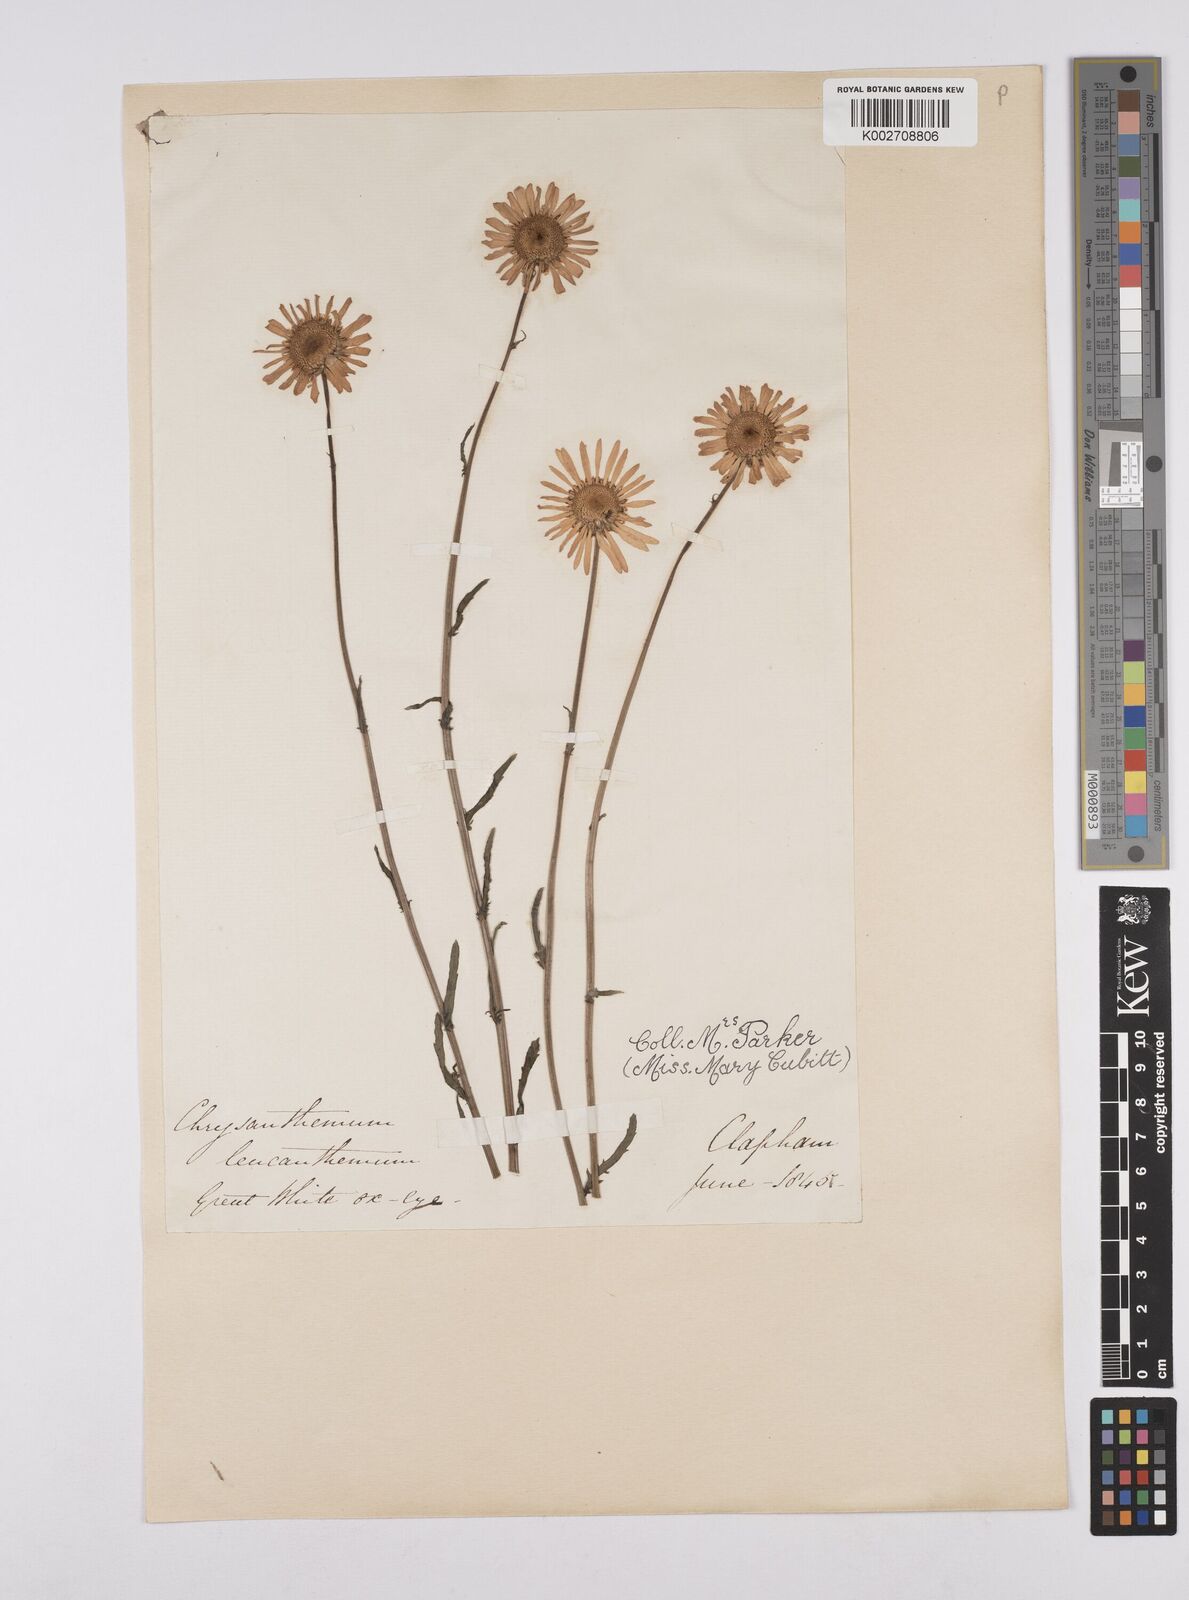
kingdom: Plantae
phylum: Tracheophyta
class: Magnoliopsida
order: Asterales
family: Asteraceae
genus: Leucanthemum
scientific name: Leucanthemum vulgare
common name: Oxeye daisy
